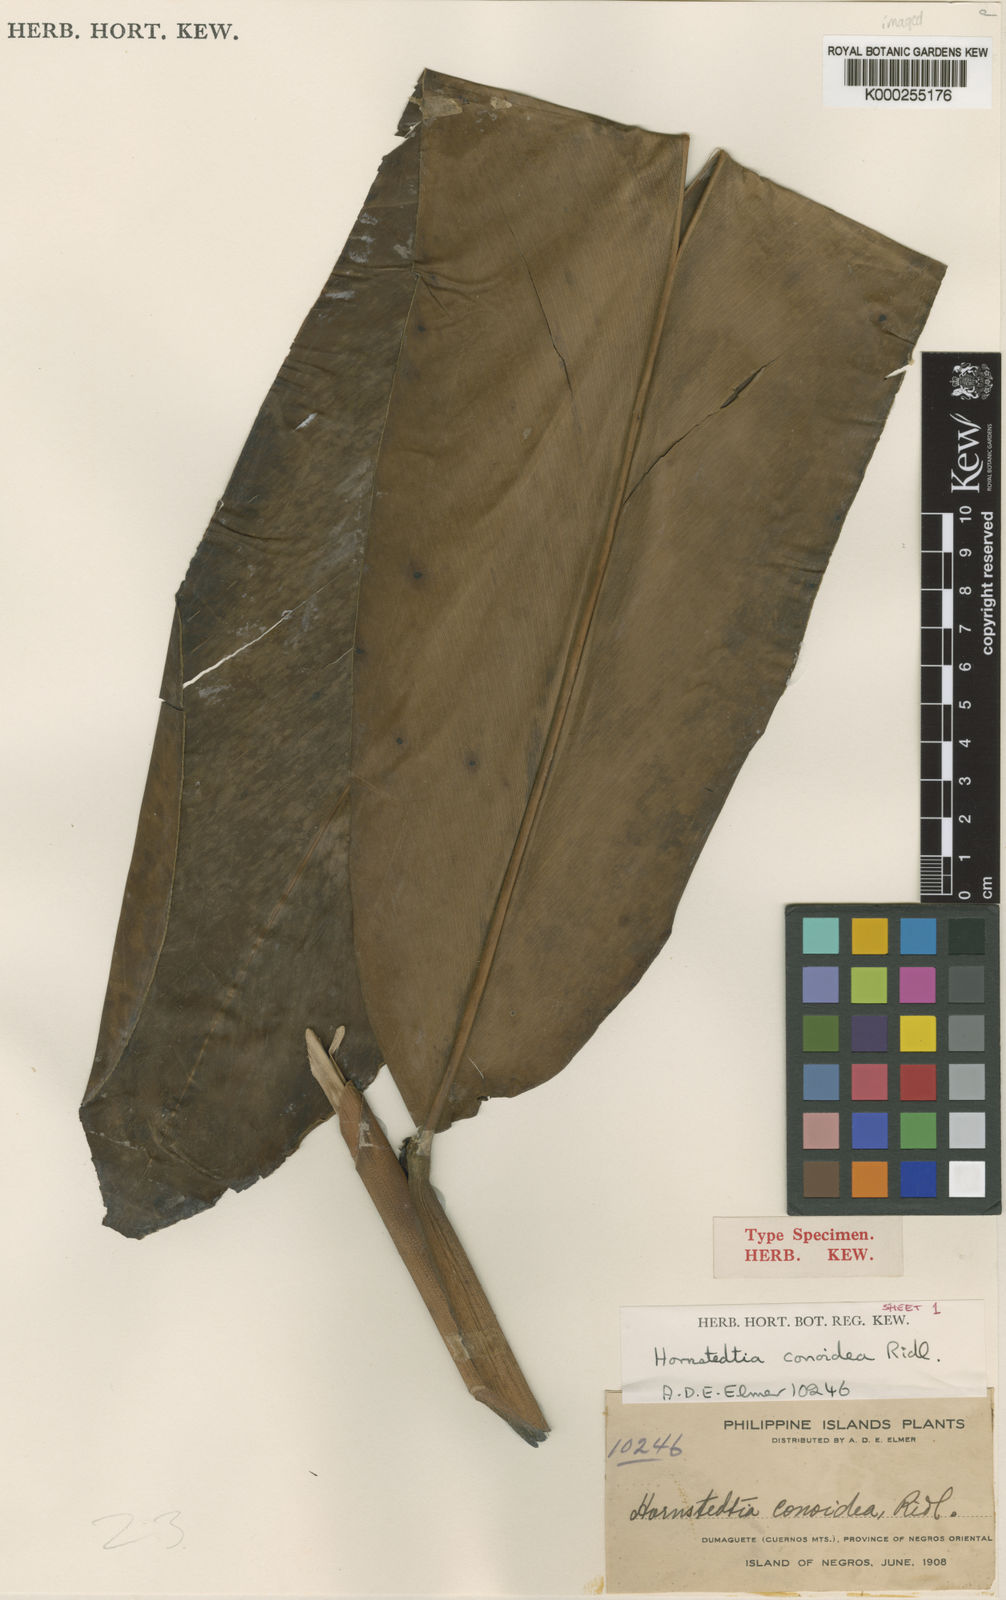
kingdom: Plantae
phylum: Tracheophyta
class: Liliopsida
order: Zingiberales
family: Zingiberaceae
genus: Hornstedtia
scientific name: Hornstedtia conoidea
